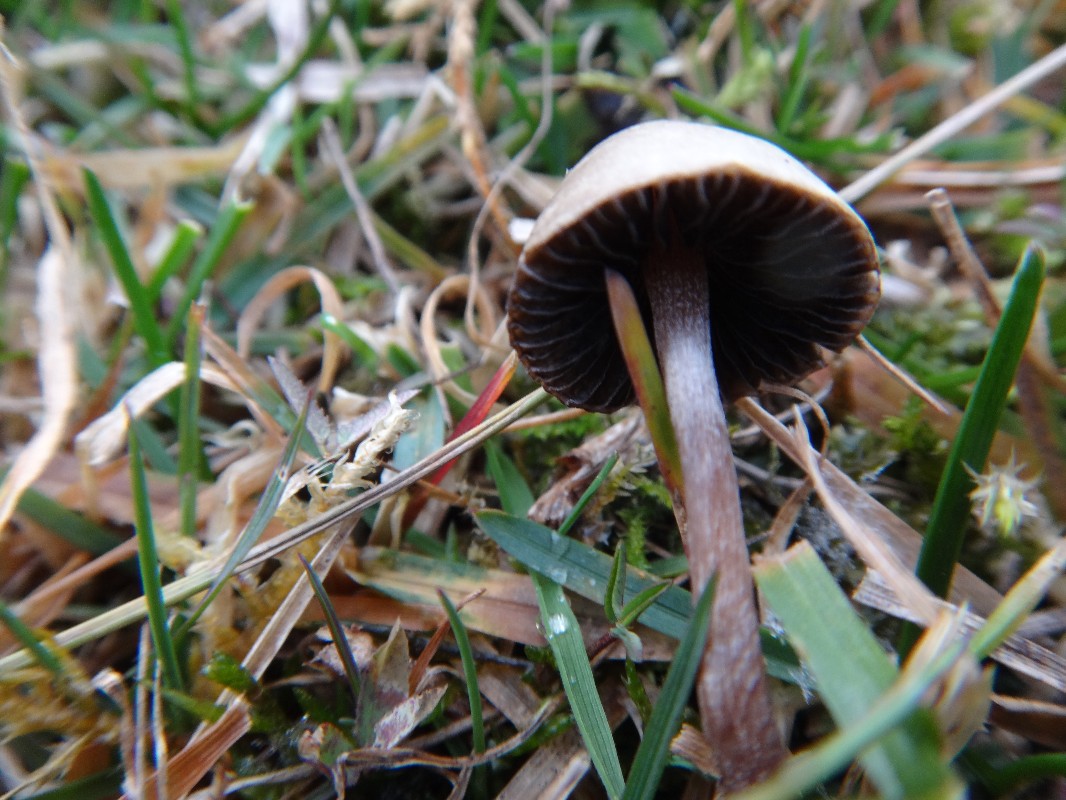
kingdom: Fungi
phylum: Basidiomycota
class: Agaricomycetes
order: Agaricales
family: Bolbitiaceae
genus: Panaeolus
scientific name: Panaeolus olivaceus
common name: lysstokket glanshat
